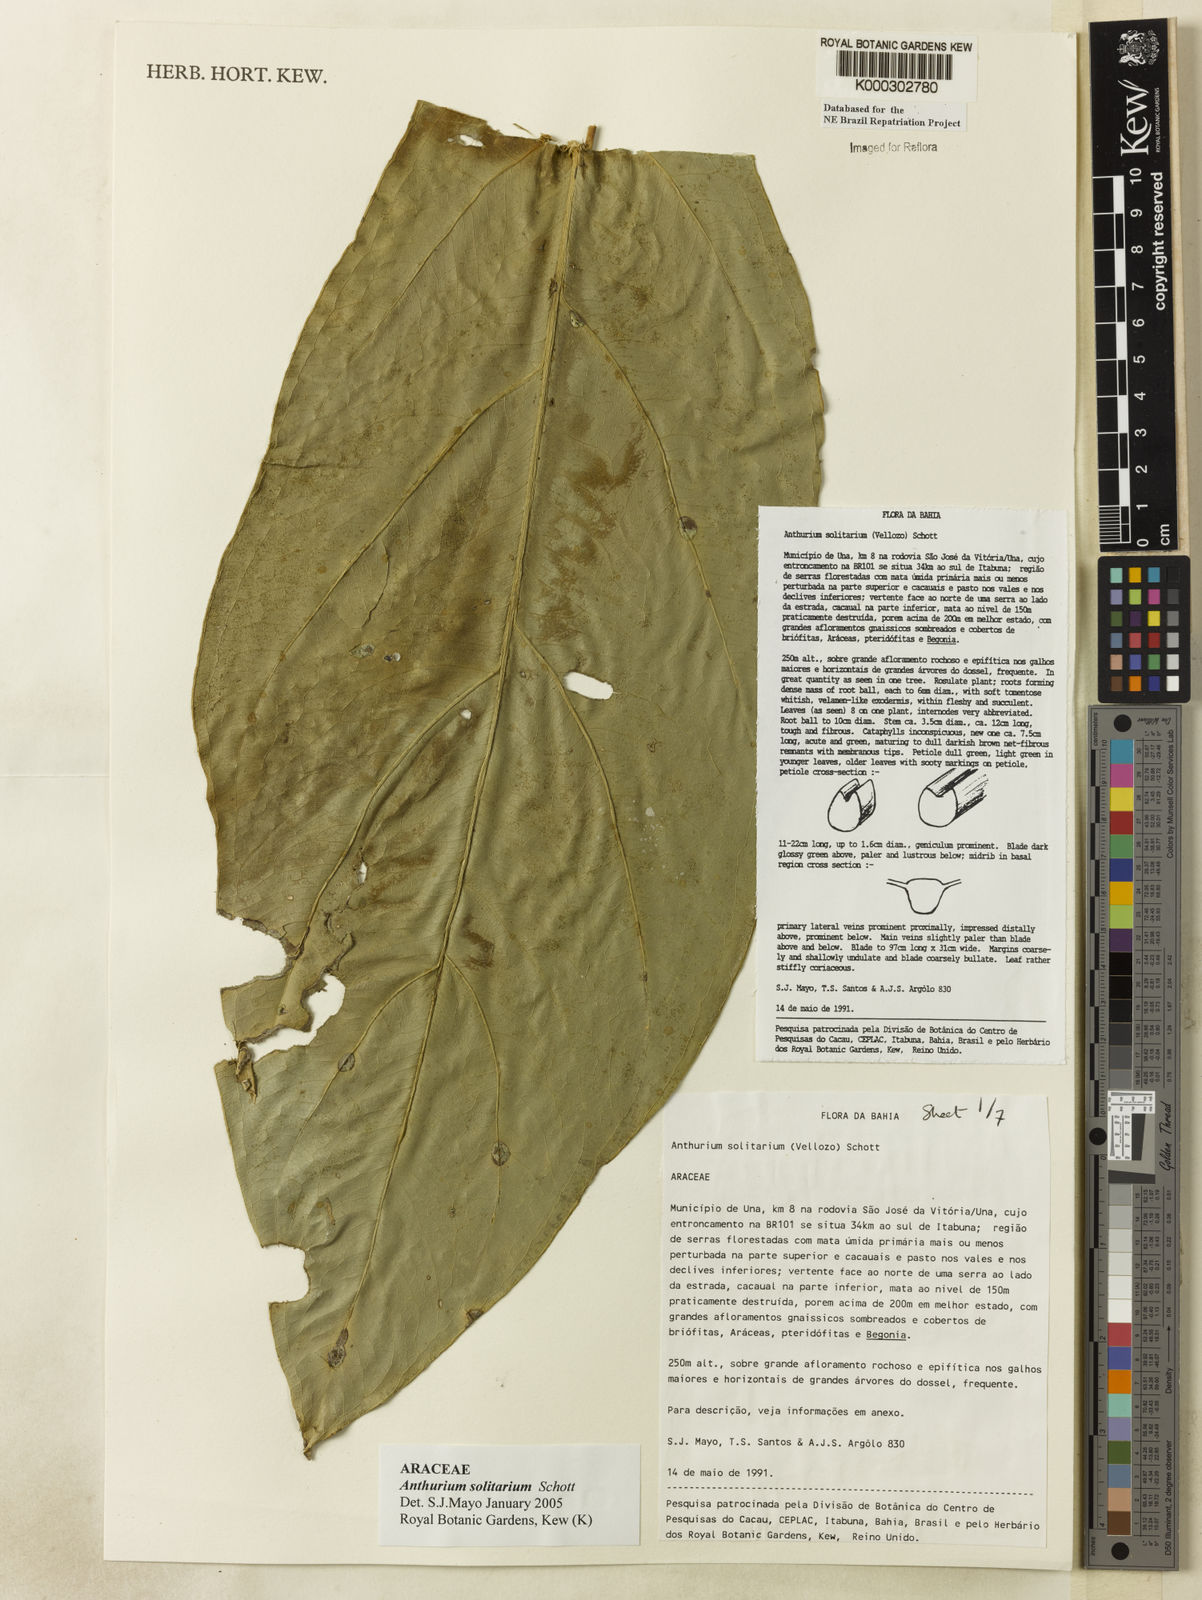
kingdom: Plantae
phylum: Tracheophyta
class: Liliopsida
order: Alismatales
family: Araceae
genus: Anthurium
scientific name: Anthurium solitarium
